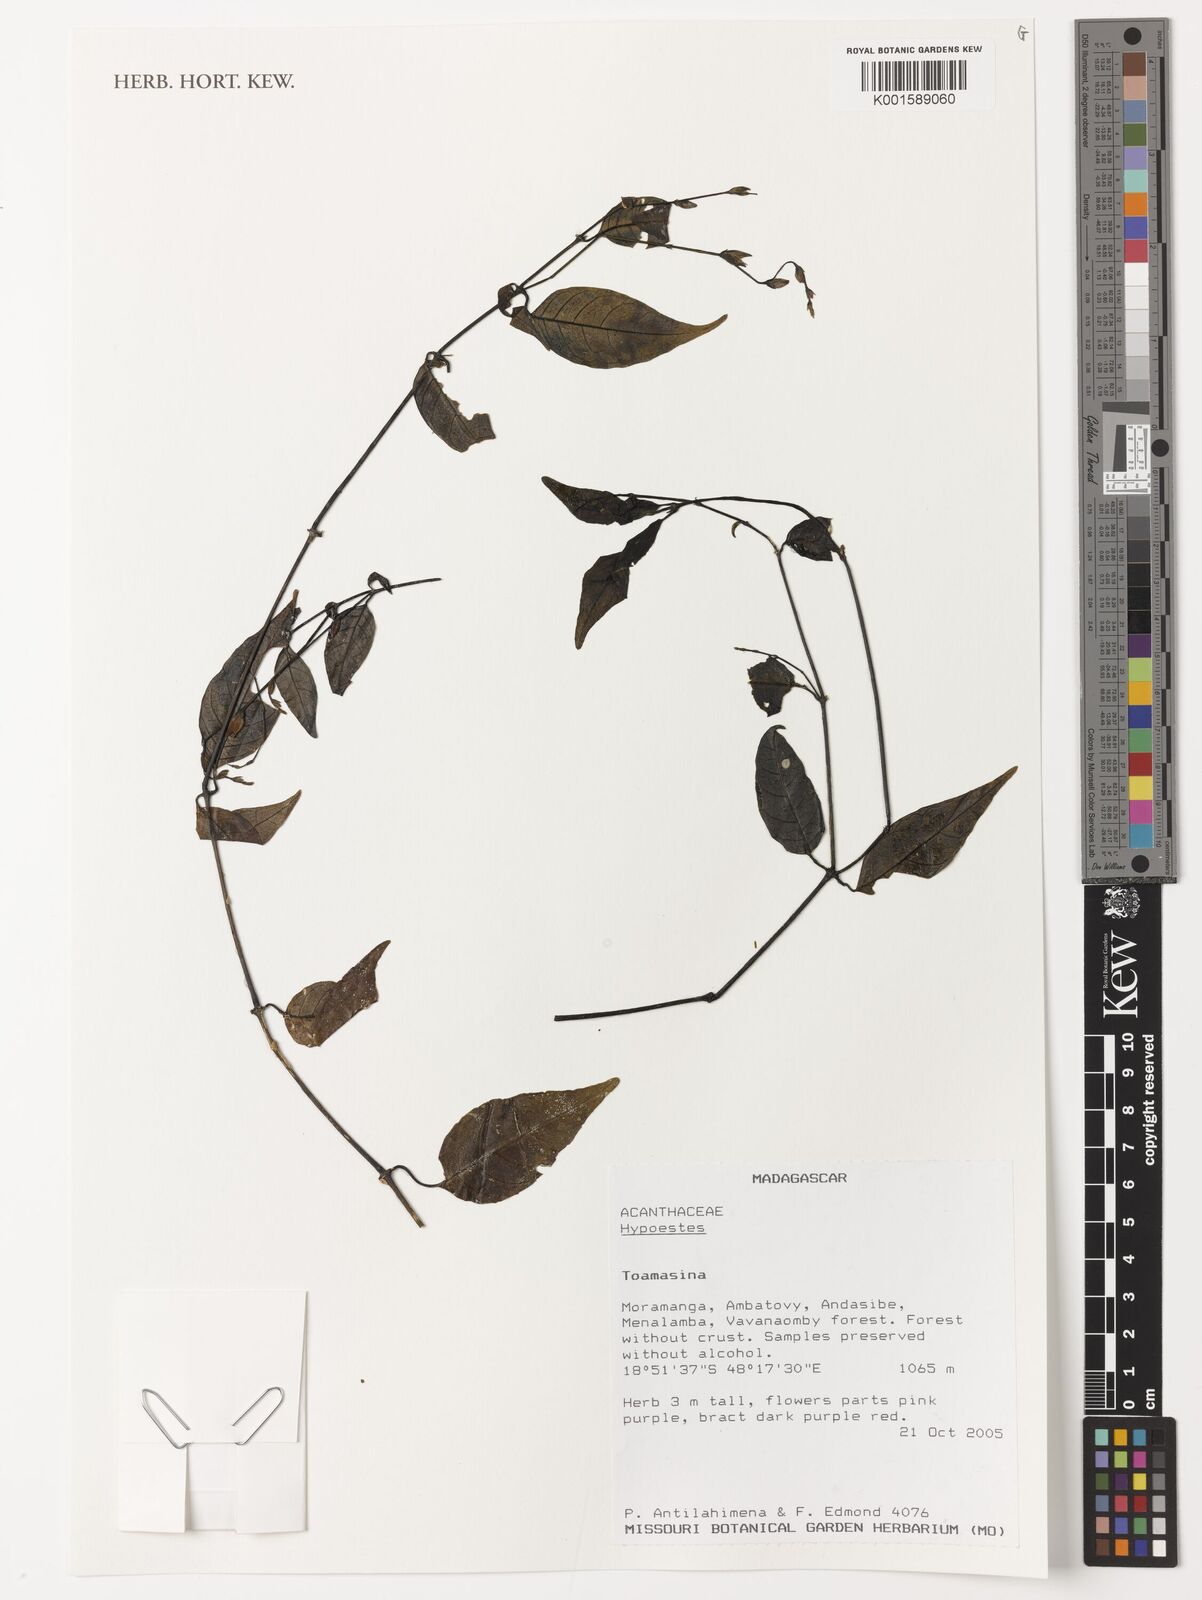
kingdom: Plantae
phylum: Tracheophyta
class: Magnoliopsida
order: Lamiales
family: Acanthaceae
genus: Hypoestes
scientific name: Hypoestes
